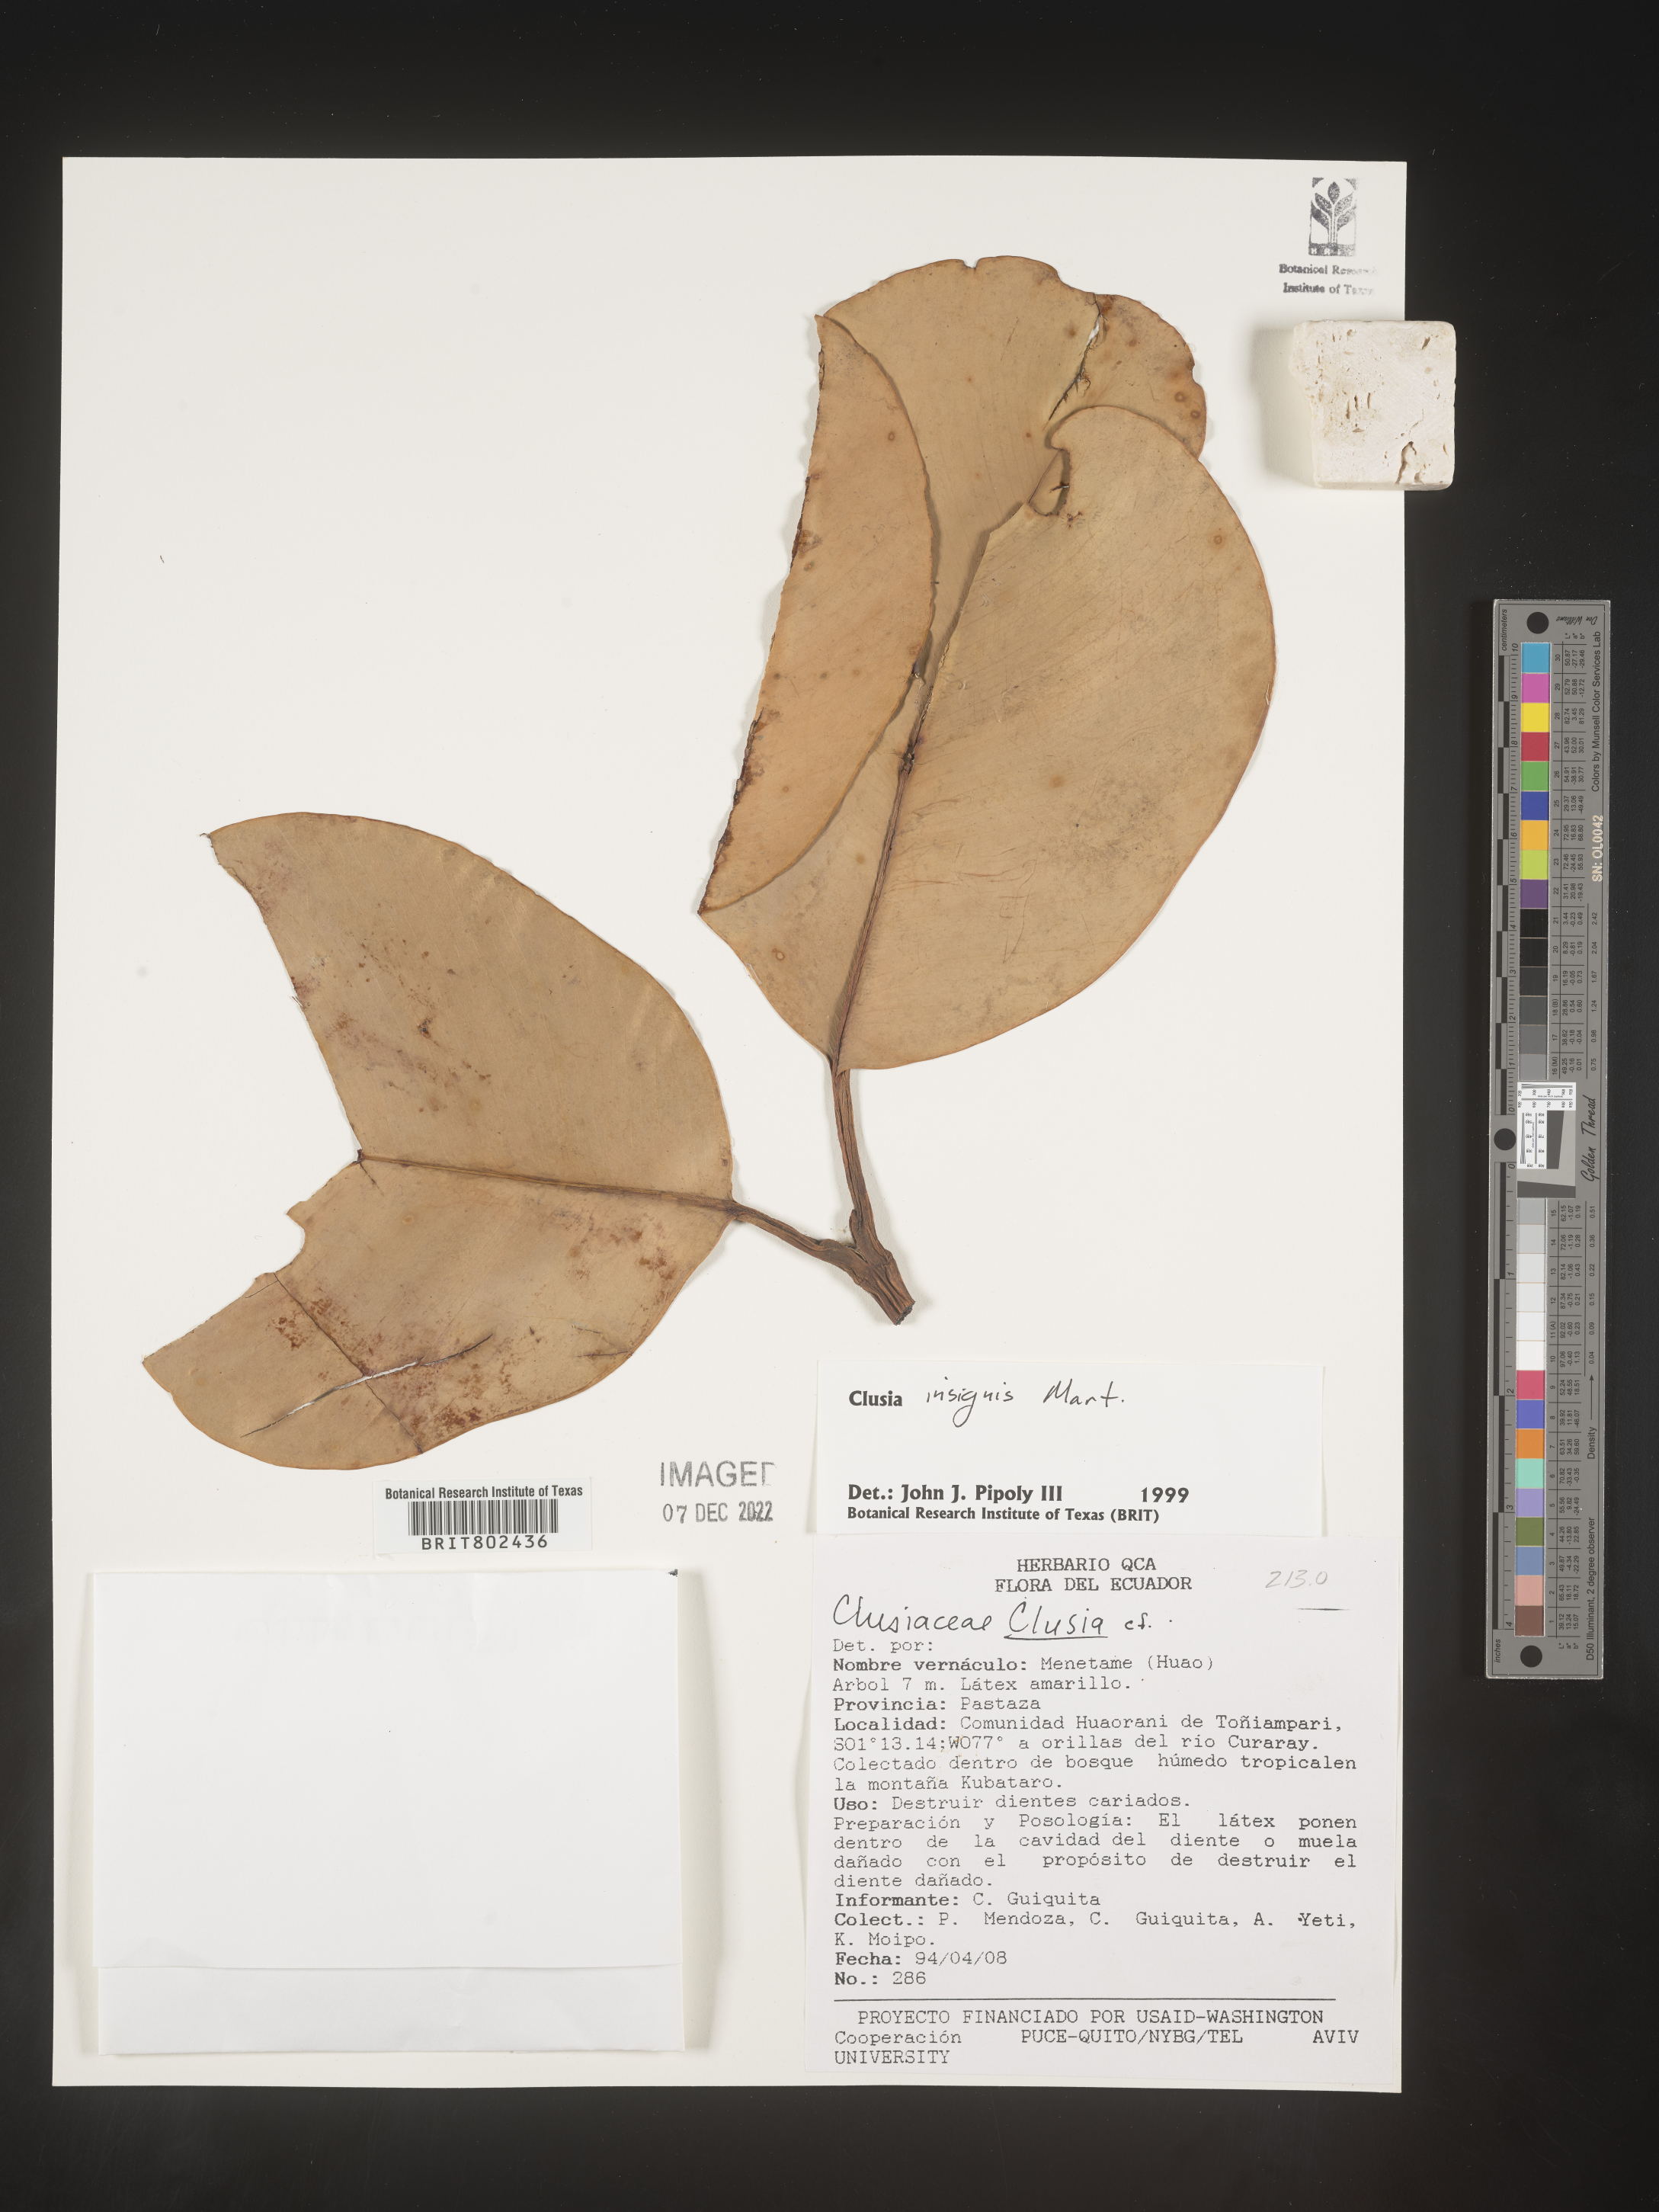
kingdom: Plantae
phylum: Tracheophyta
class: Magnoliopsida
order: Malpighiales
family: Clusiaceae
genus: Clusia
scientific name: Clusia insignis
